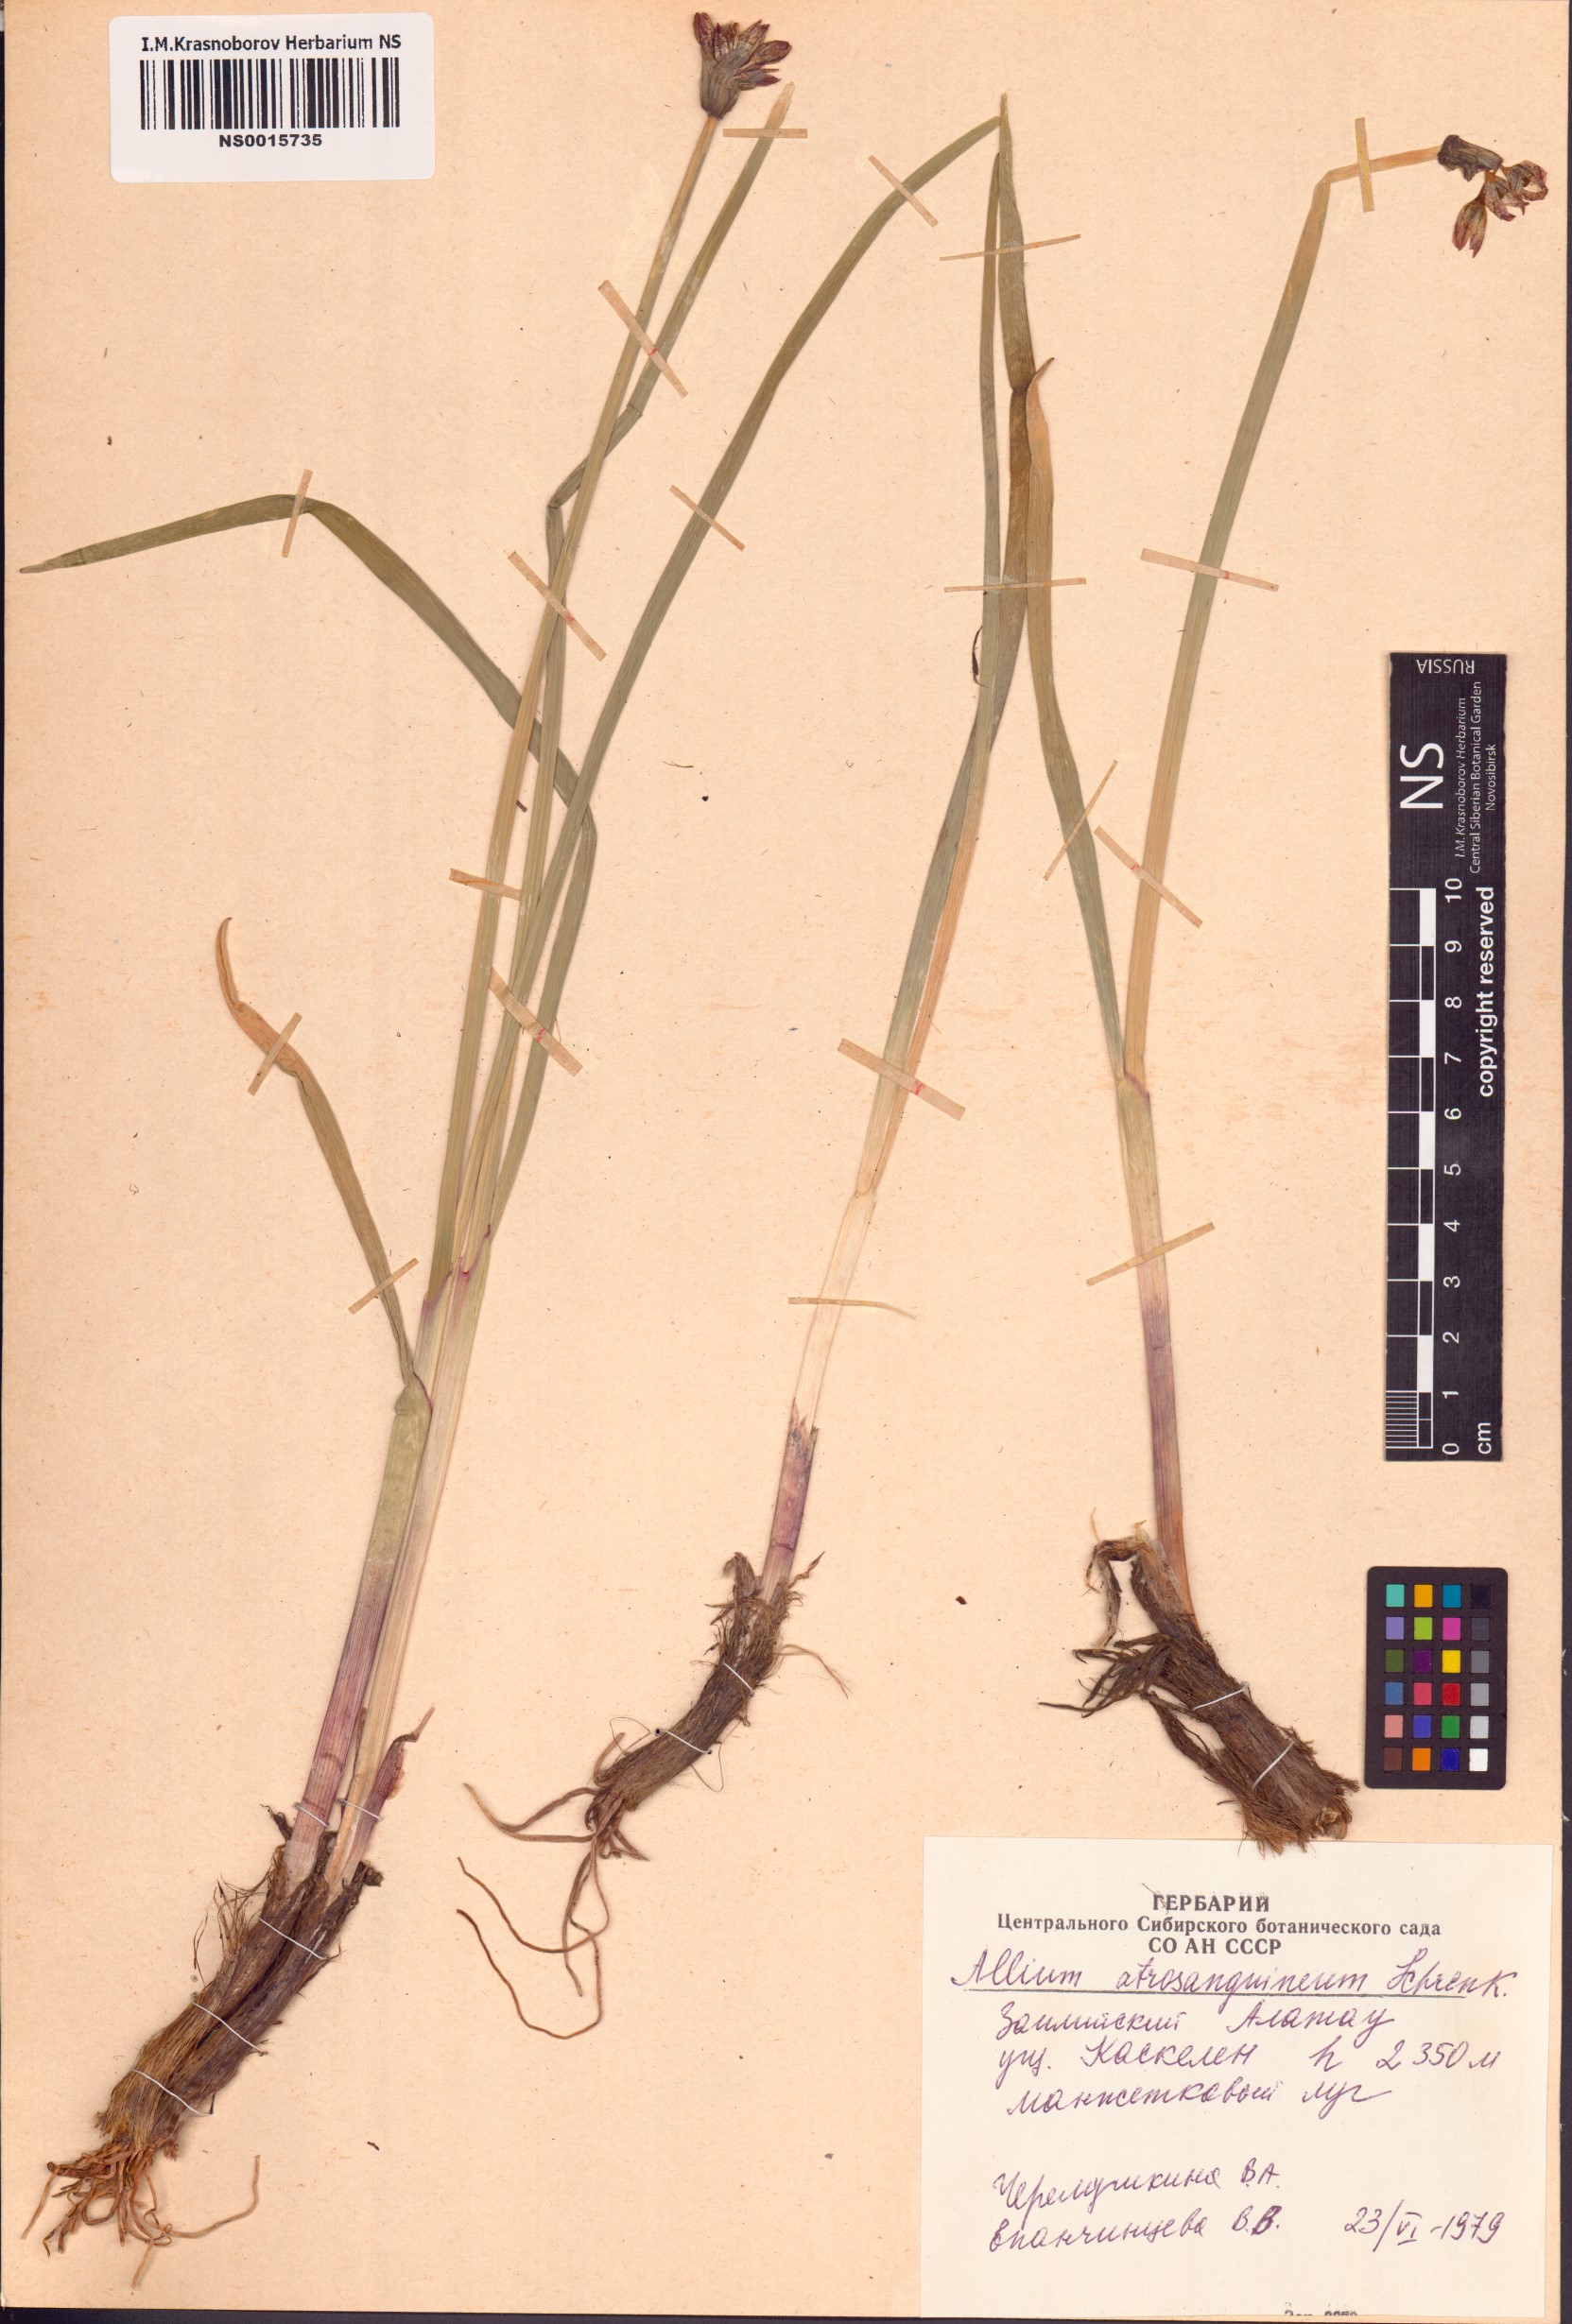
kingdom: Plantae
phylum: Tracheophyta
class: Liliopsida
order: Asparagales
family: Amaryllidaceae
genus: Allium
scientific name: Allium atrosanguineum
